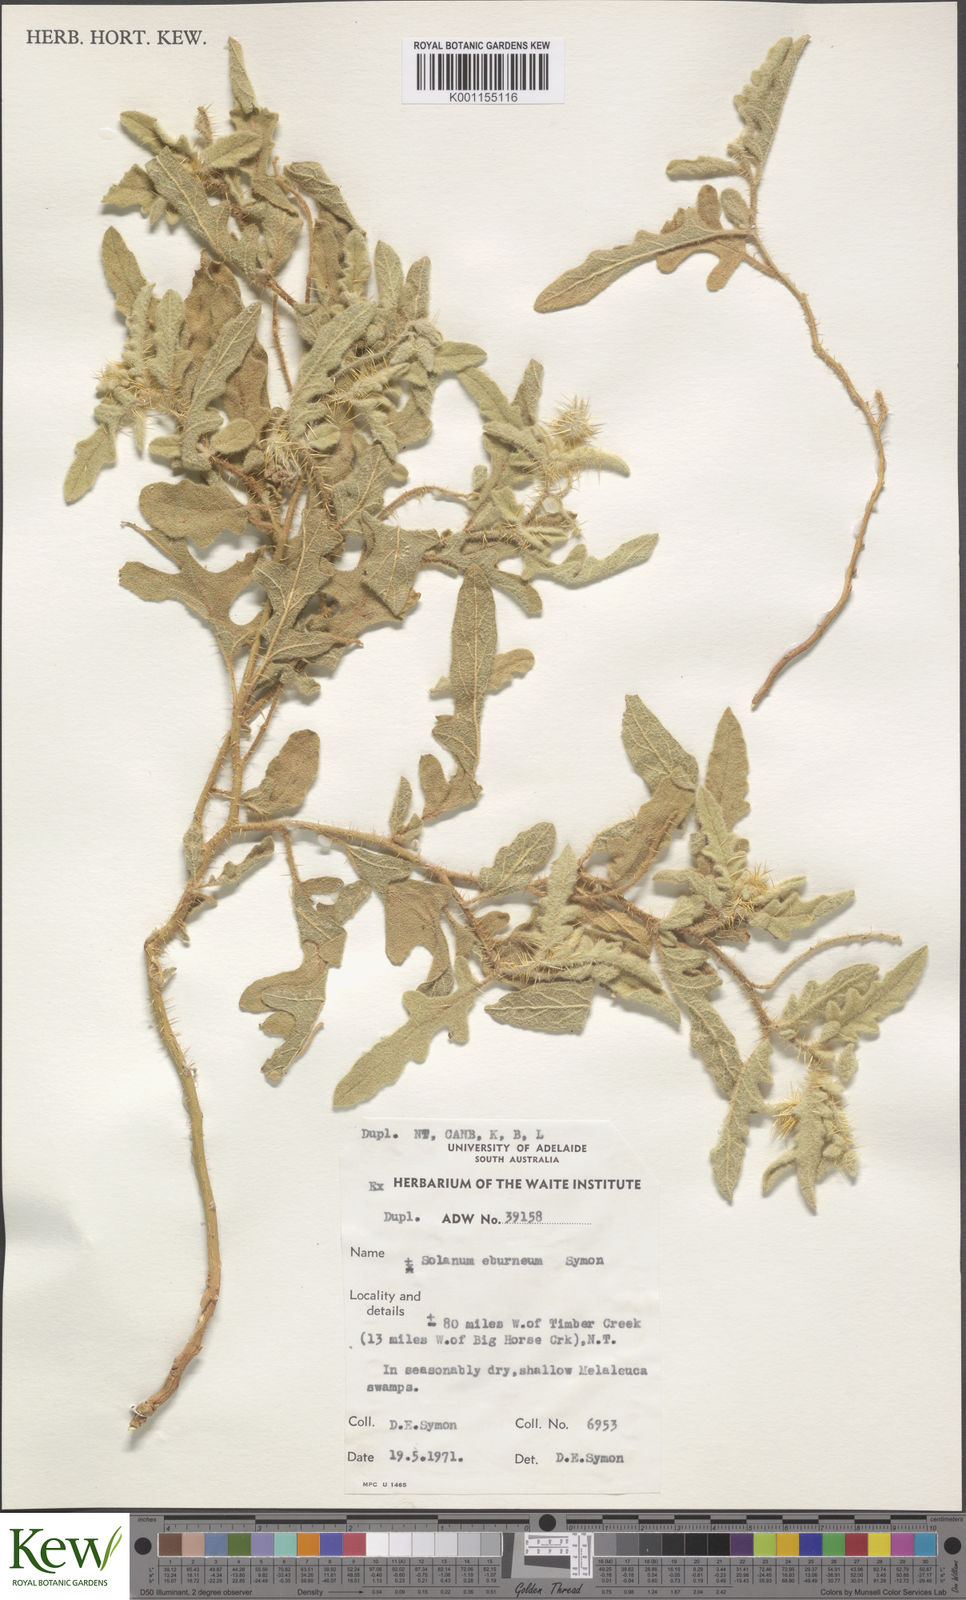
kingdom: Plantae
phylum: Tracheophyta
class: Magnoliopsida
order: Solanales
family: Solanaceae
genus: Solanum
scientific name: Solanum eburneum
